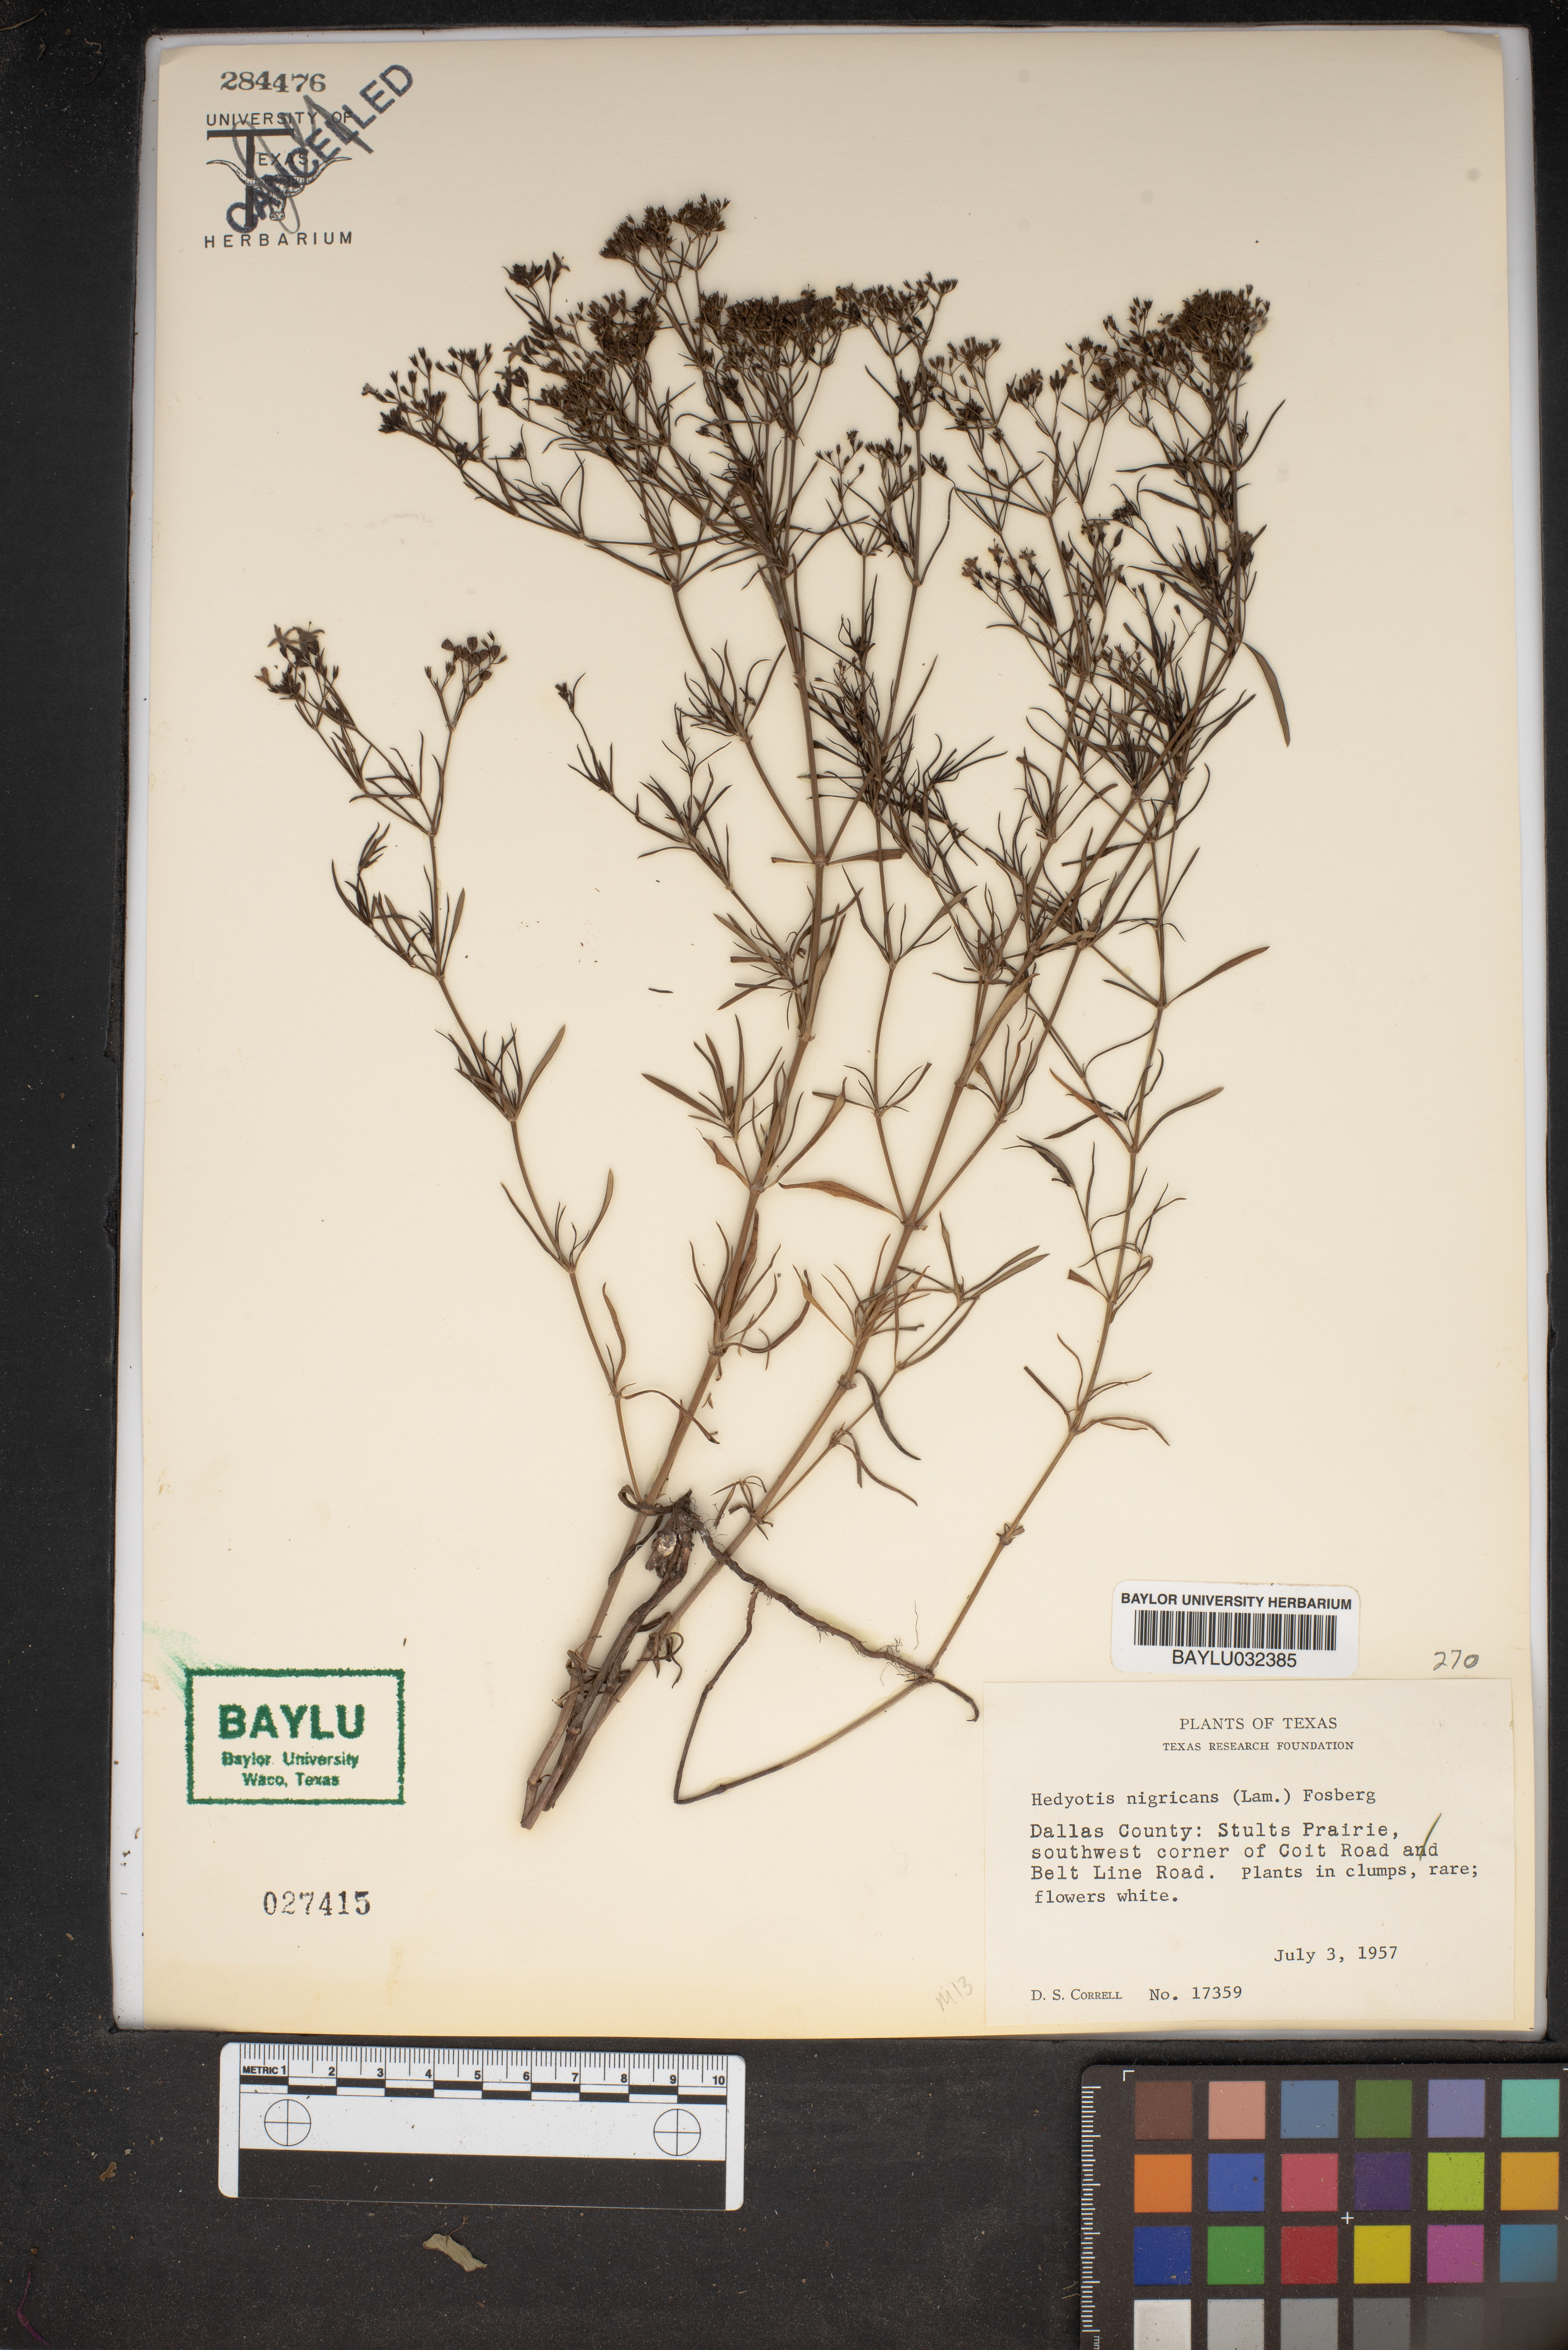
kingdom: Plantae
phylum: Tracheophyta
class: Magnoliopsida
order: Gentianales
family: Rubiaceae
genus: Stenaria
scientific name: Stenaria nigricans
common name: Diamondflowers
